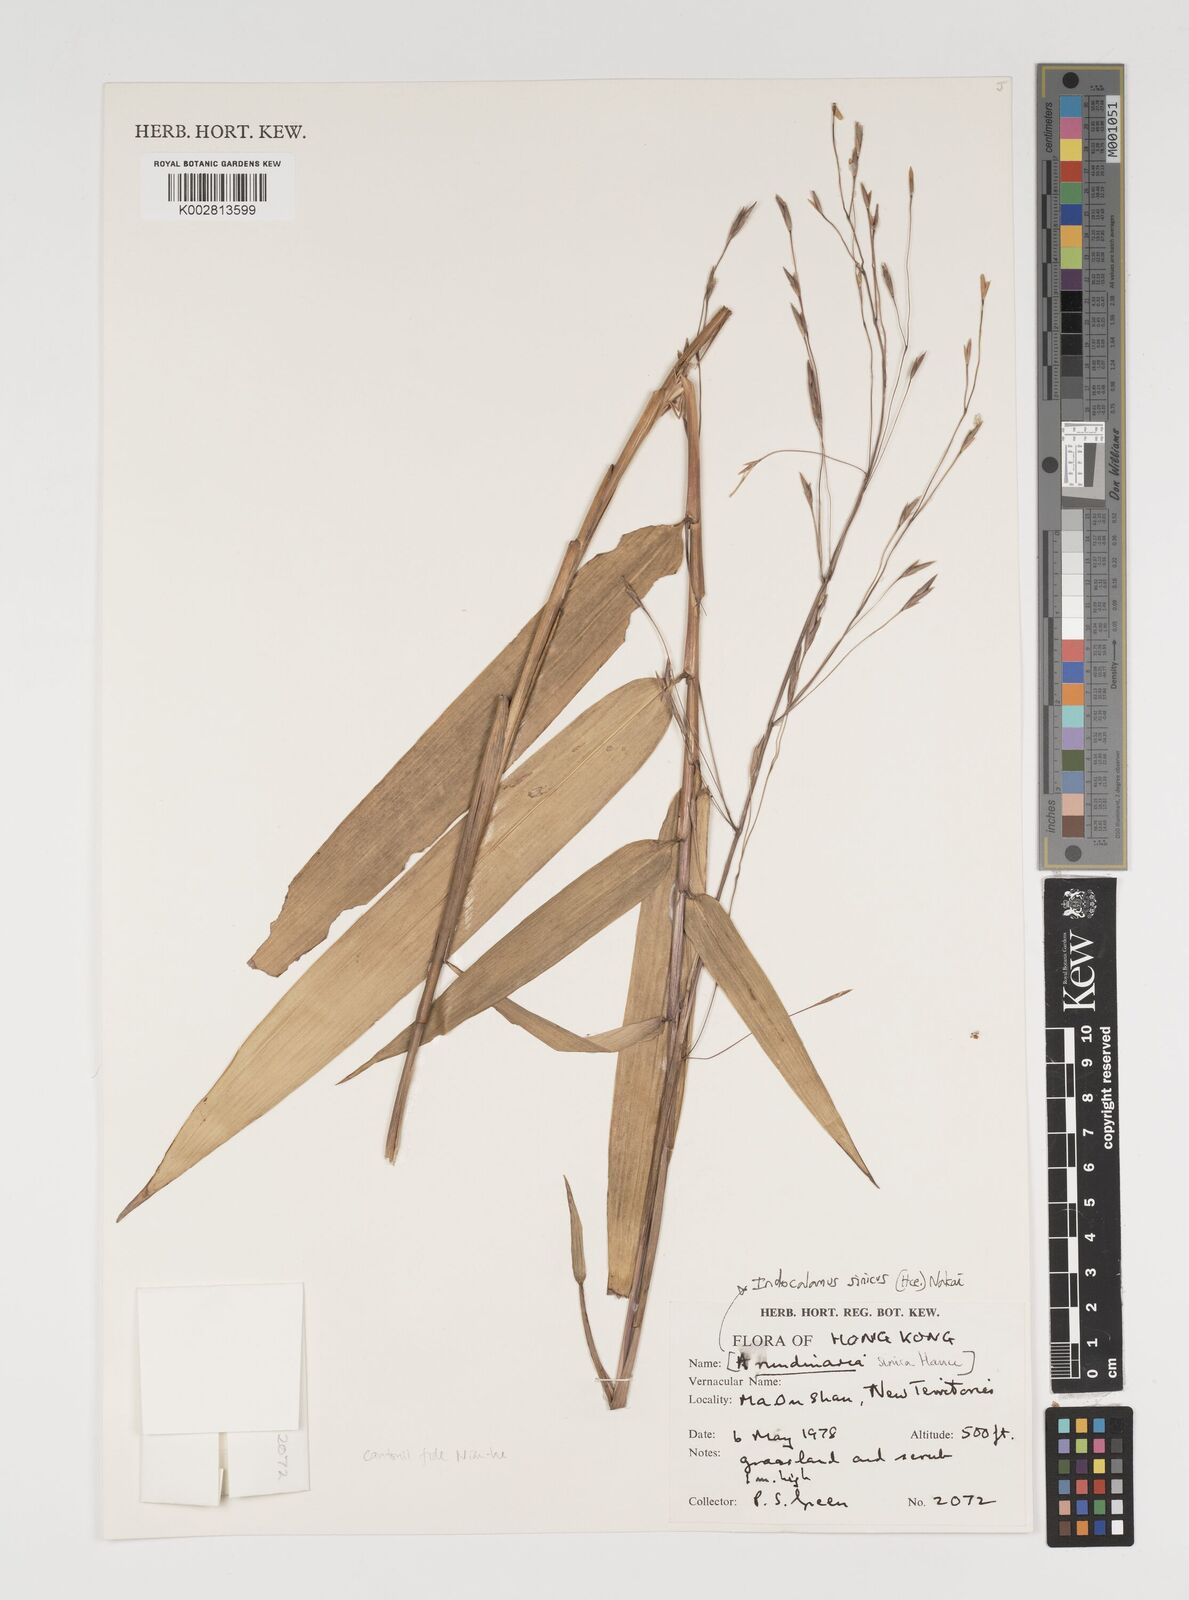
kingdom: Plantae
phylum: Tracheophyta
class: Liliopsida
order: Poales
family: Poaceae
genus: Indocalamus
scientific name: Indocalamus sinicus
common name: Chinese cane
